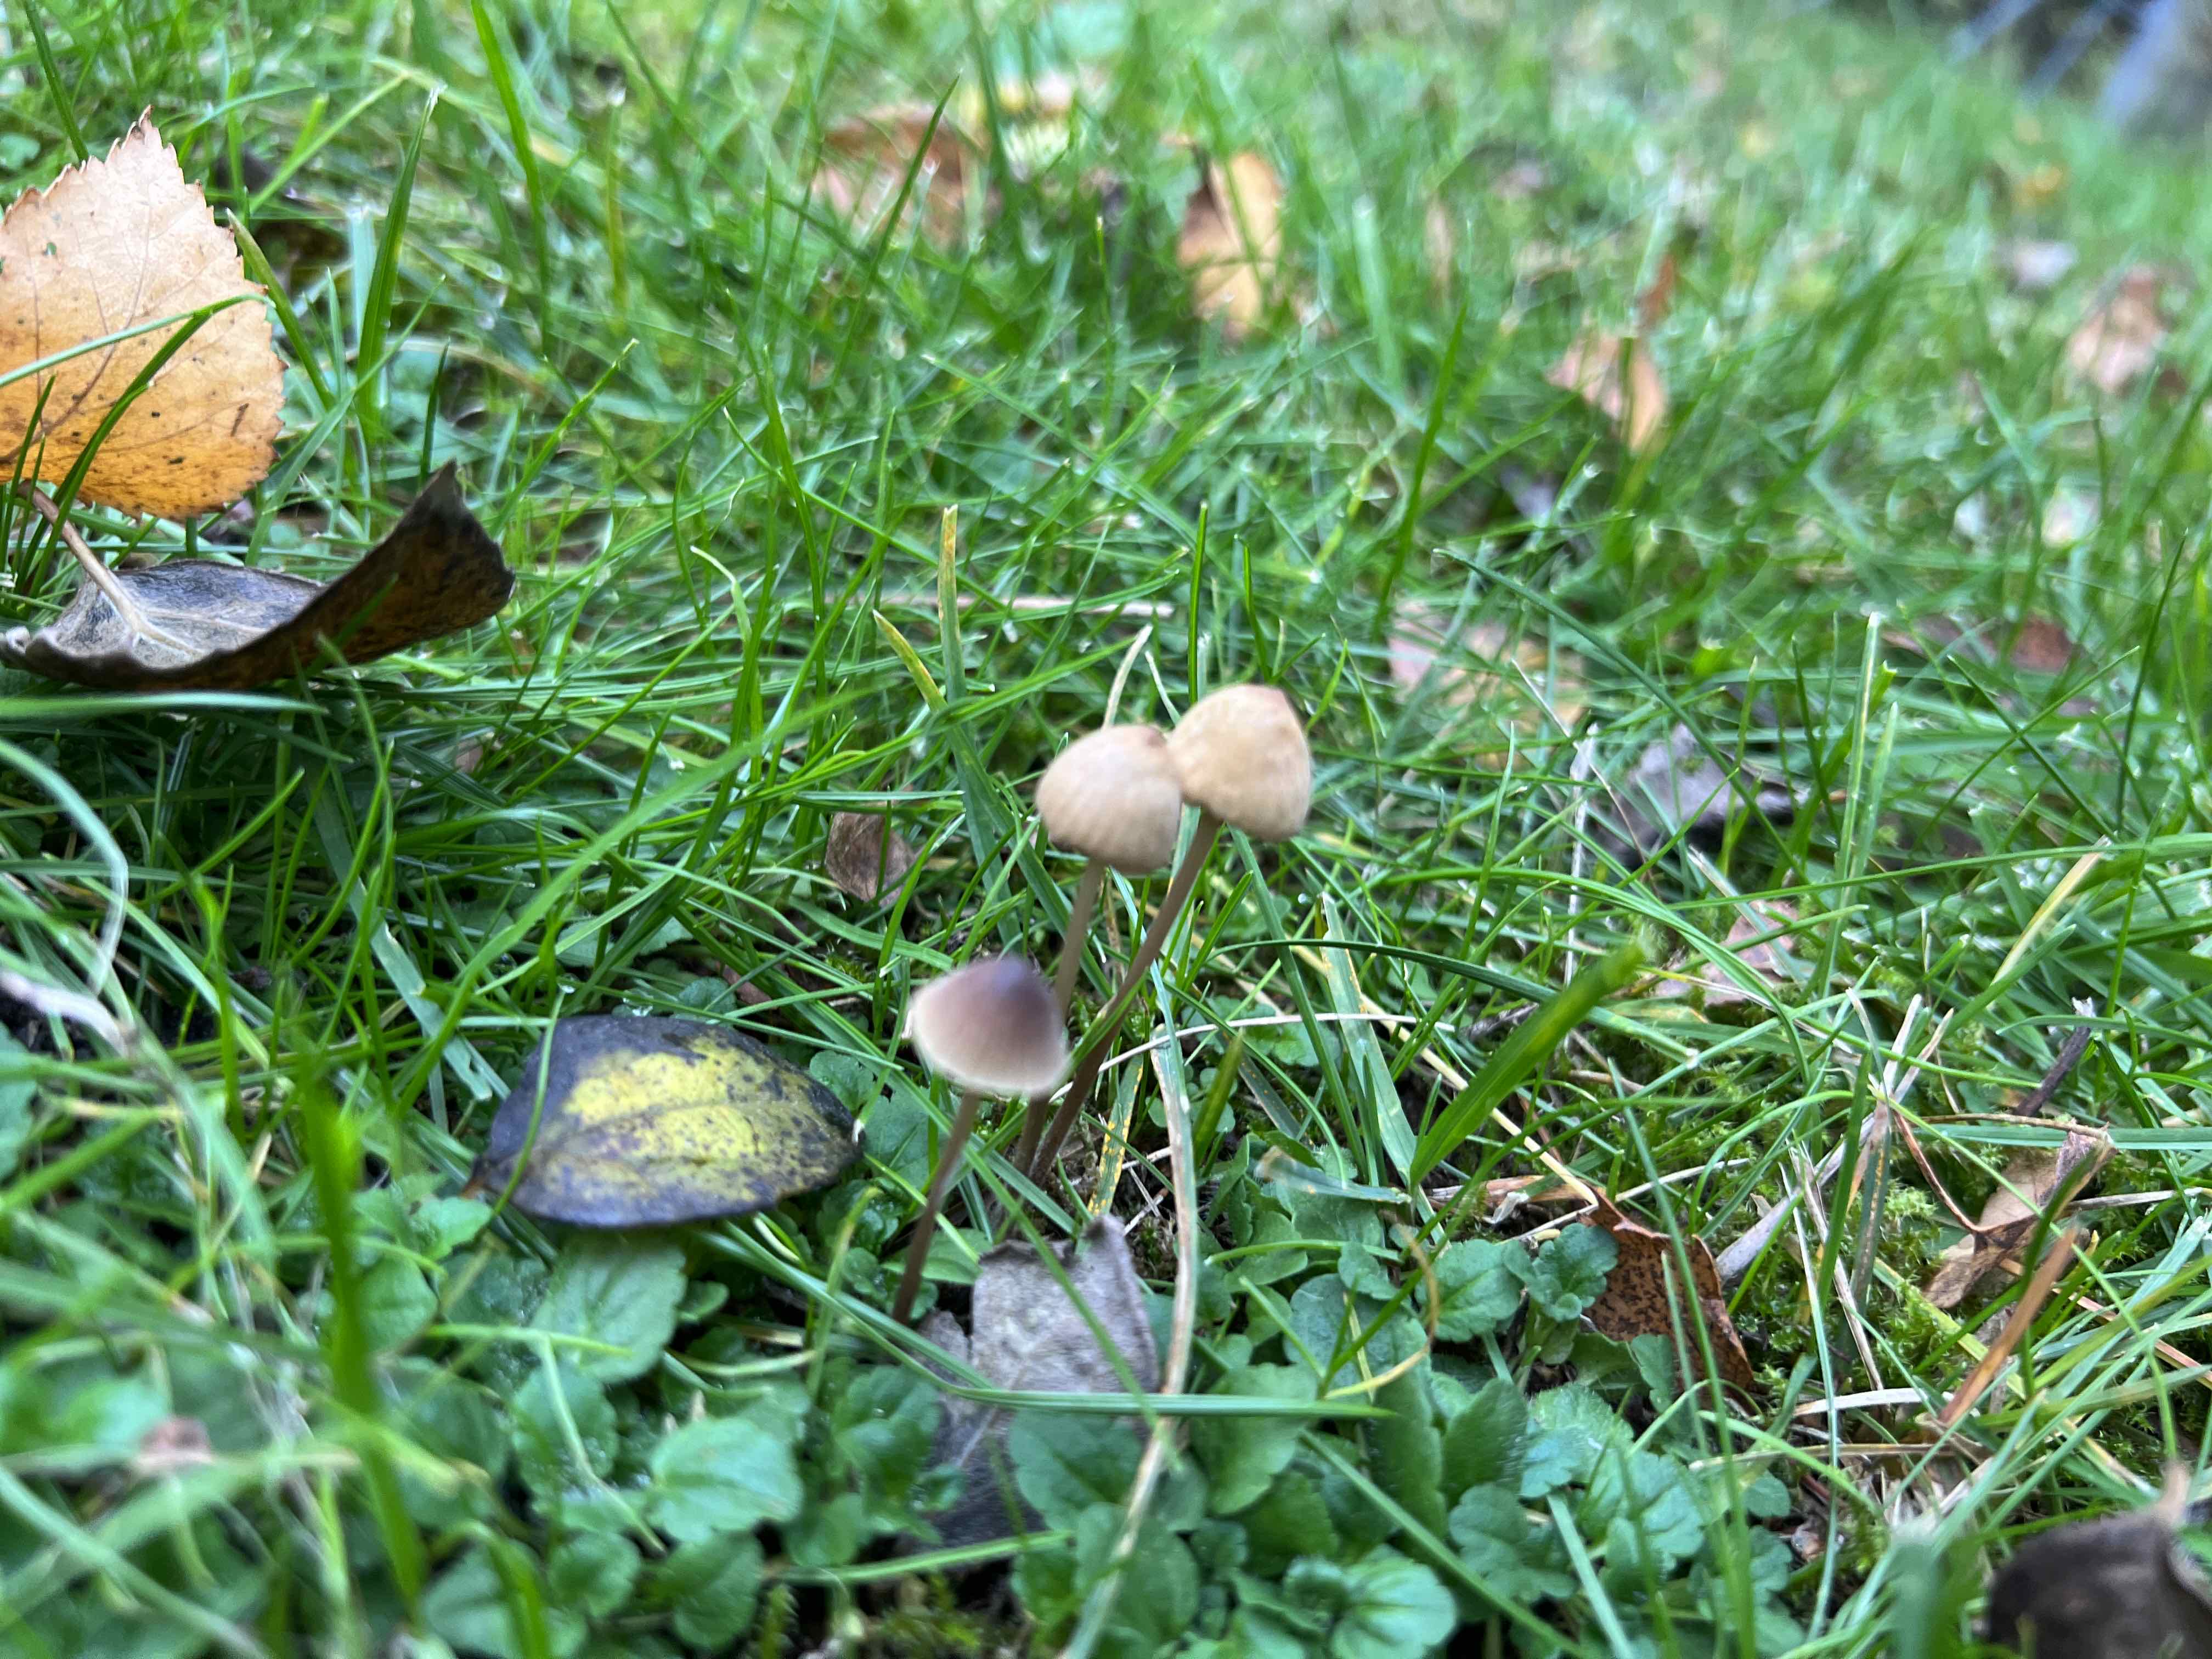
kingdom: Fungi
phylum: Basidiomycota
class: Agaricomycetes
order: Agaricales
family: Mycenaceae
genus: Mycena
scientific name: Mycena
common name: huesvamp
